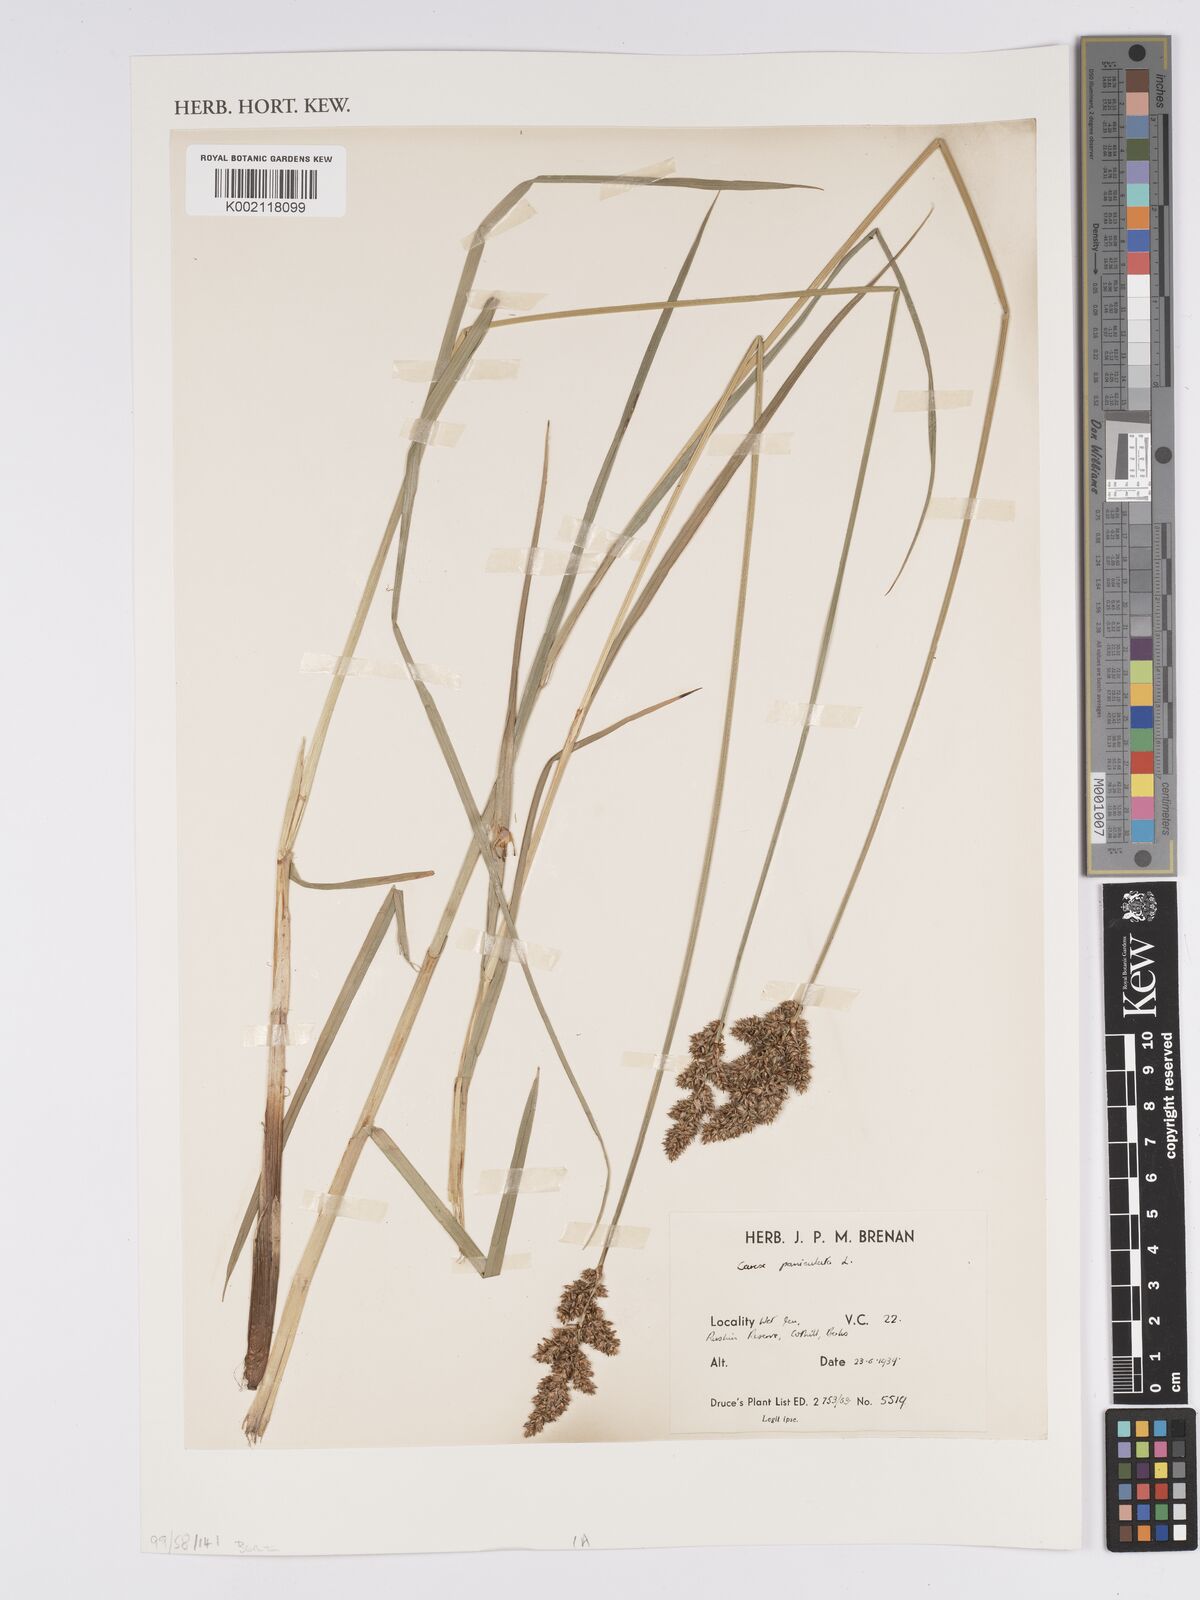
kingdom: Plantae
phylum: Tracheophyta
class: Liliopsida
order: Poales
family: Cyperaceae
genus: Carex
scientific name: Carex paniculata
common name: Greater tussock-sedge
